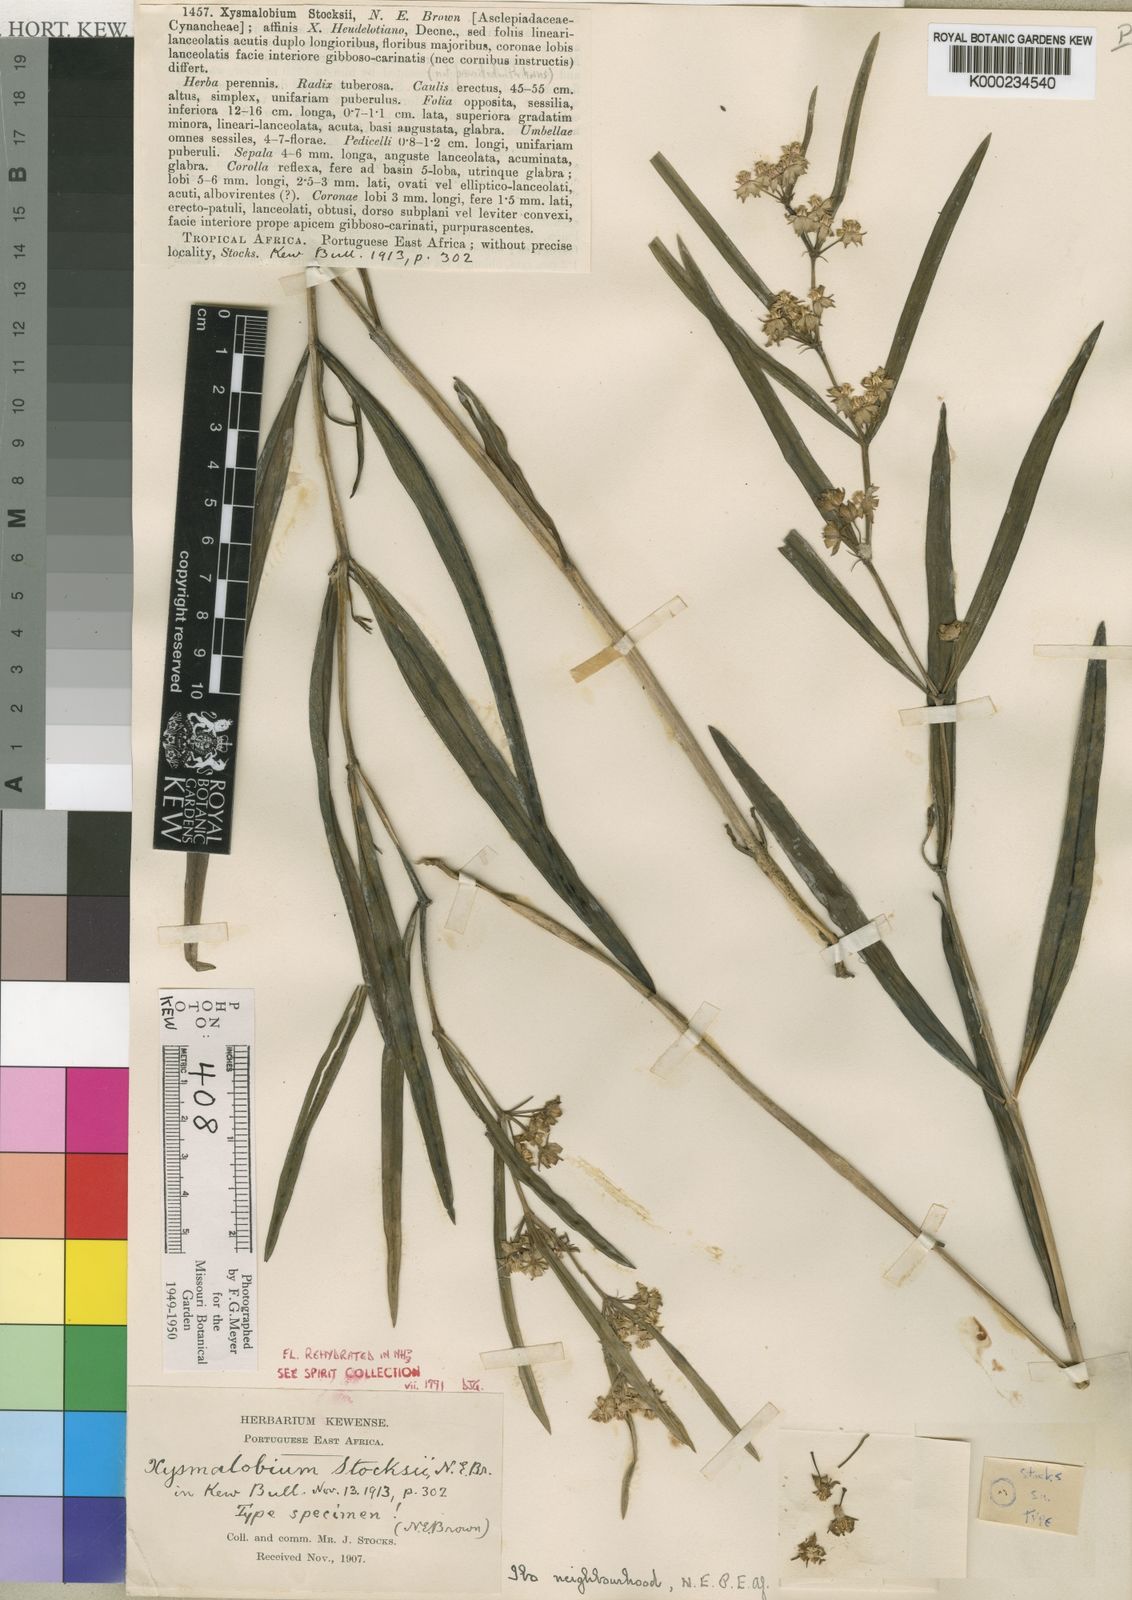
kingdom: Plantae
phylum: Tracheophyta
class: Magnoliopsida
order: Gentianales
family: Apocynaceae
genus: Xysmalobium
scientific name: Xysmalobium stocksii
